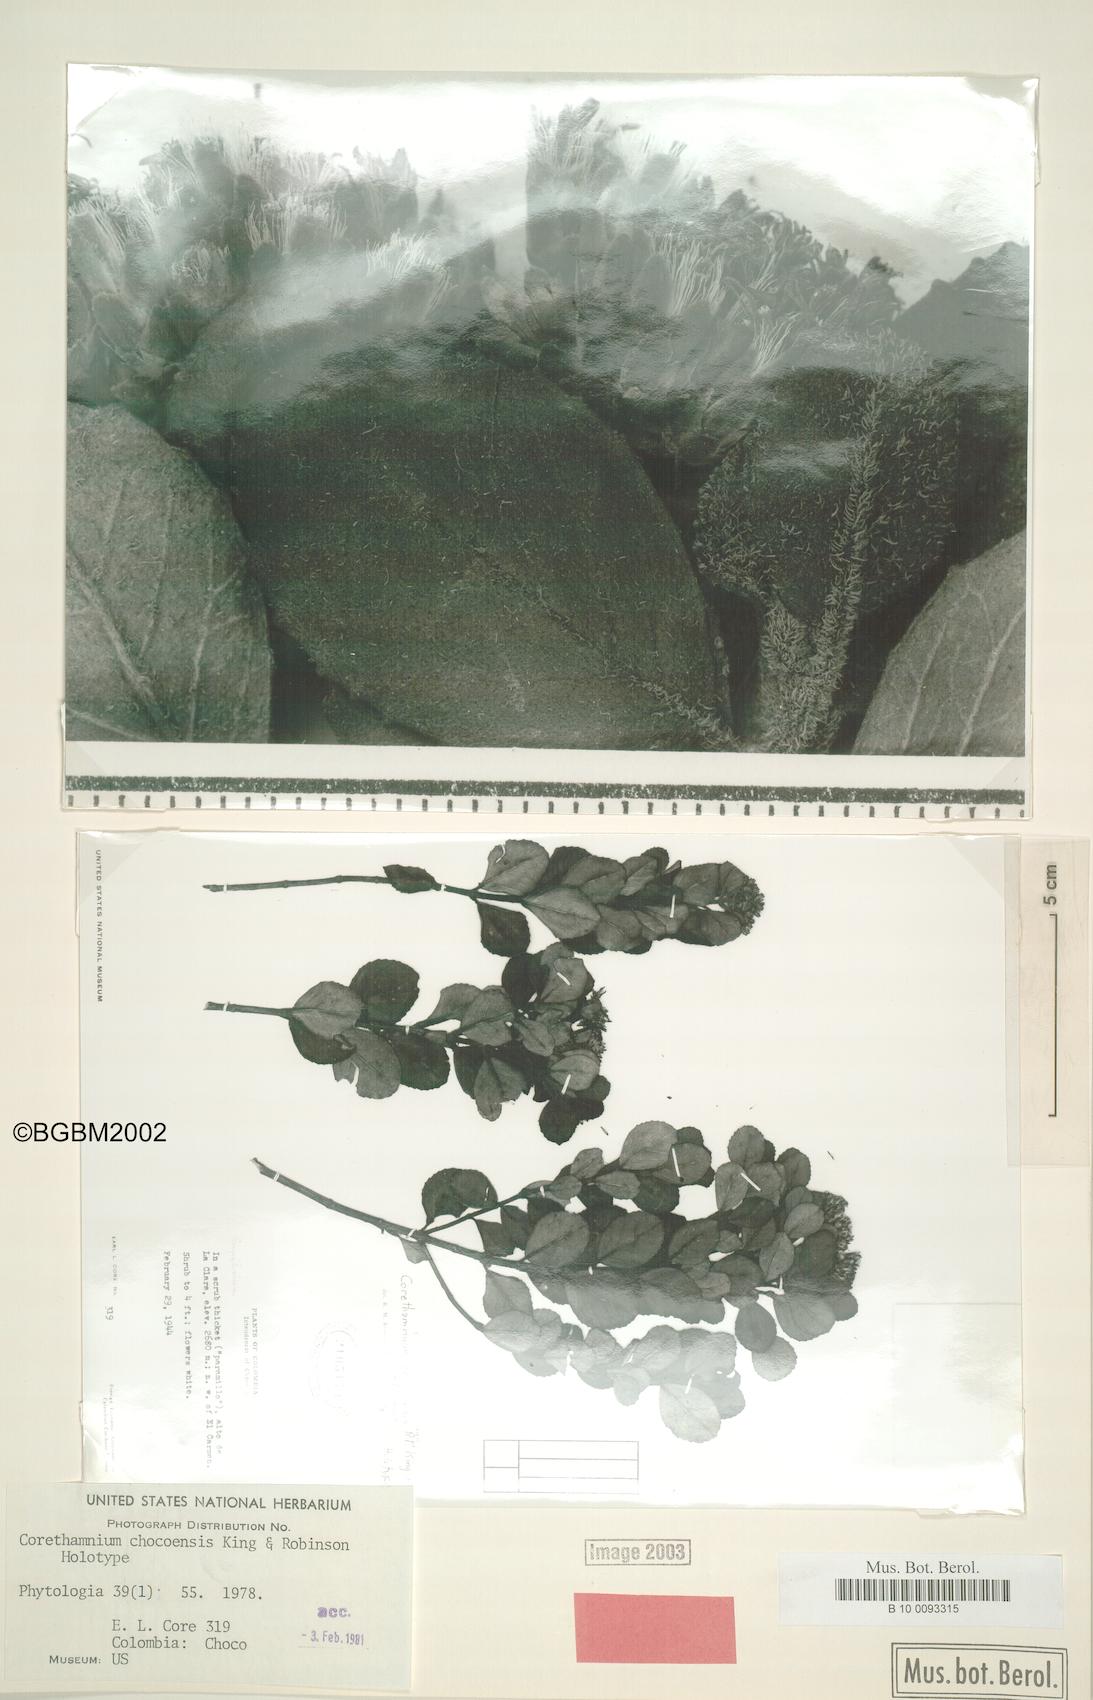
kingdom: Plantae
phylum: Tracheophyta
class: Magnoliopsida
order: Asterales
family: Asteraceae
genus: Corethamnium
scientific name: Corethamnium chocoensis
